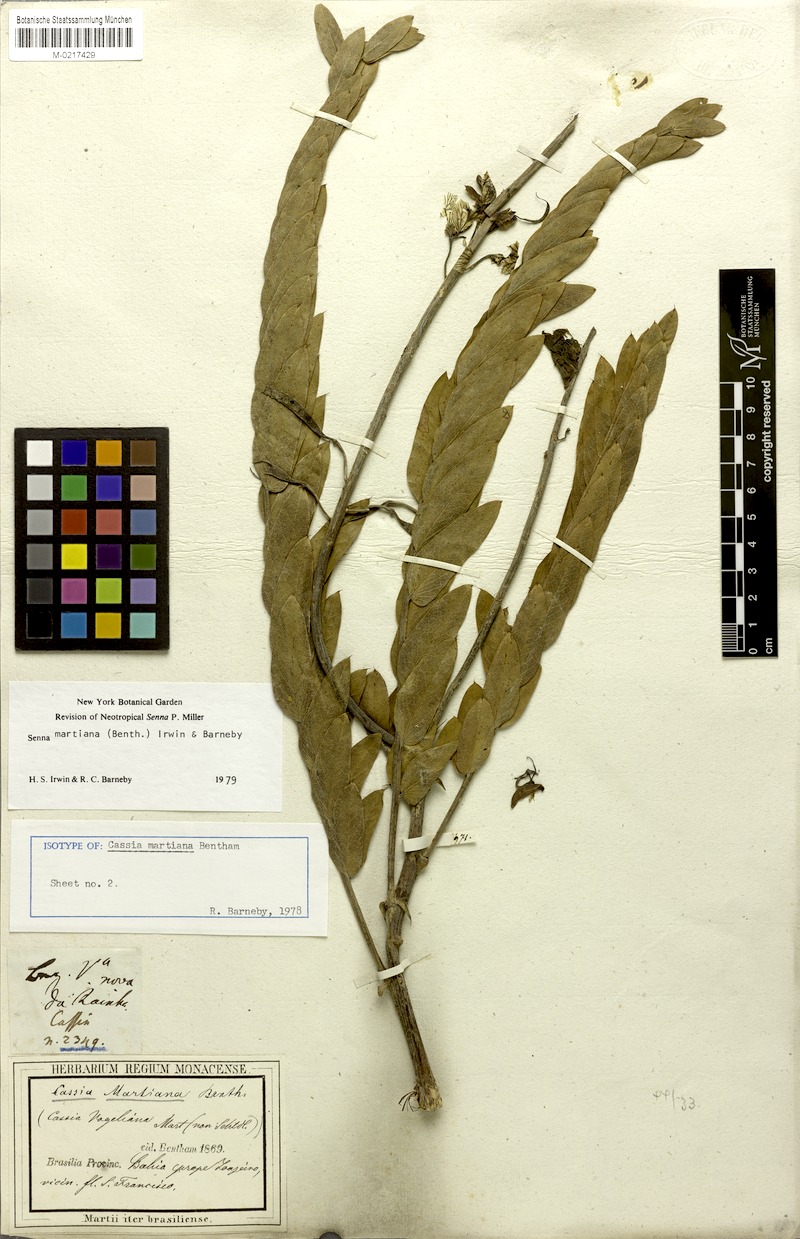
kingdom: Plantae
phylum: Tracheophyta
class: Magnoliopsida
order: Fabales
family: Fabaceae
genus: Senna
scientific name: Senna martiana
